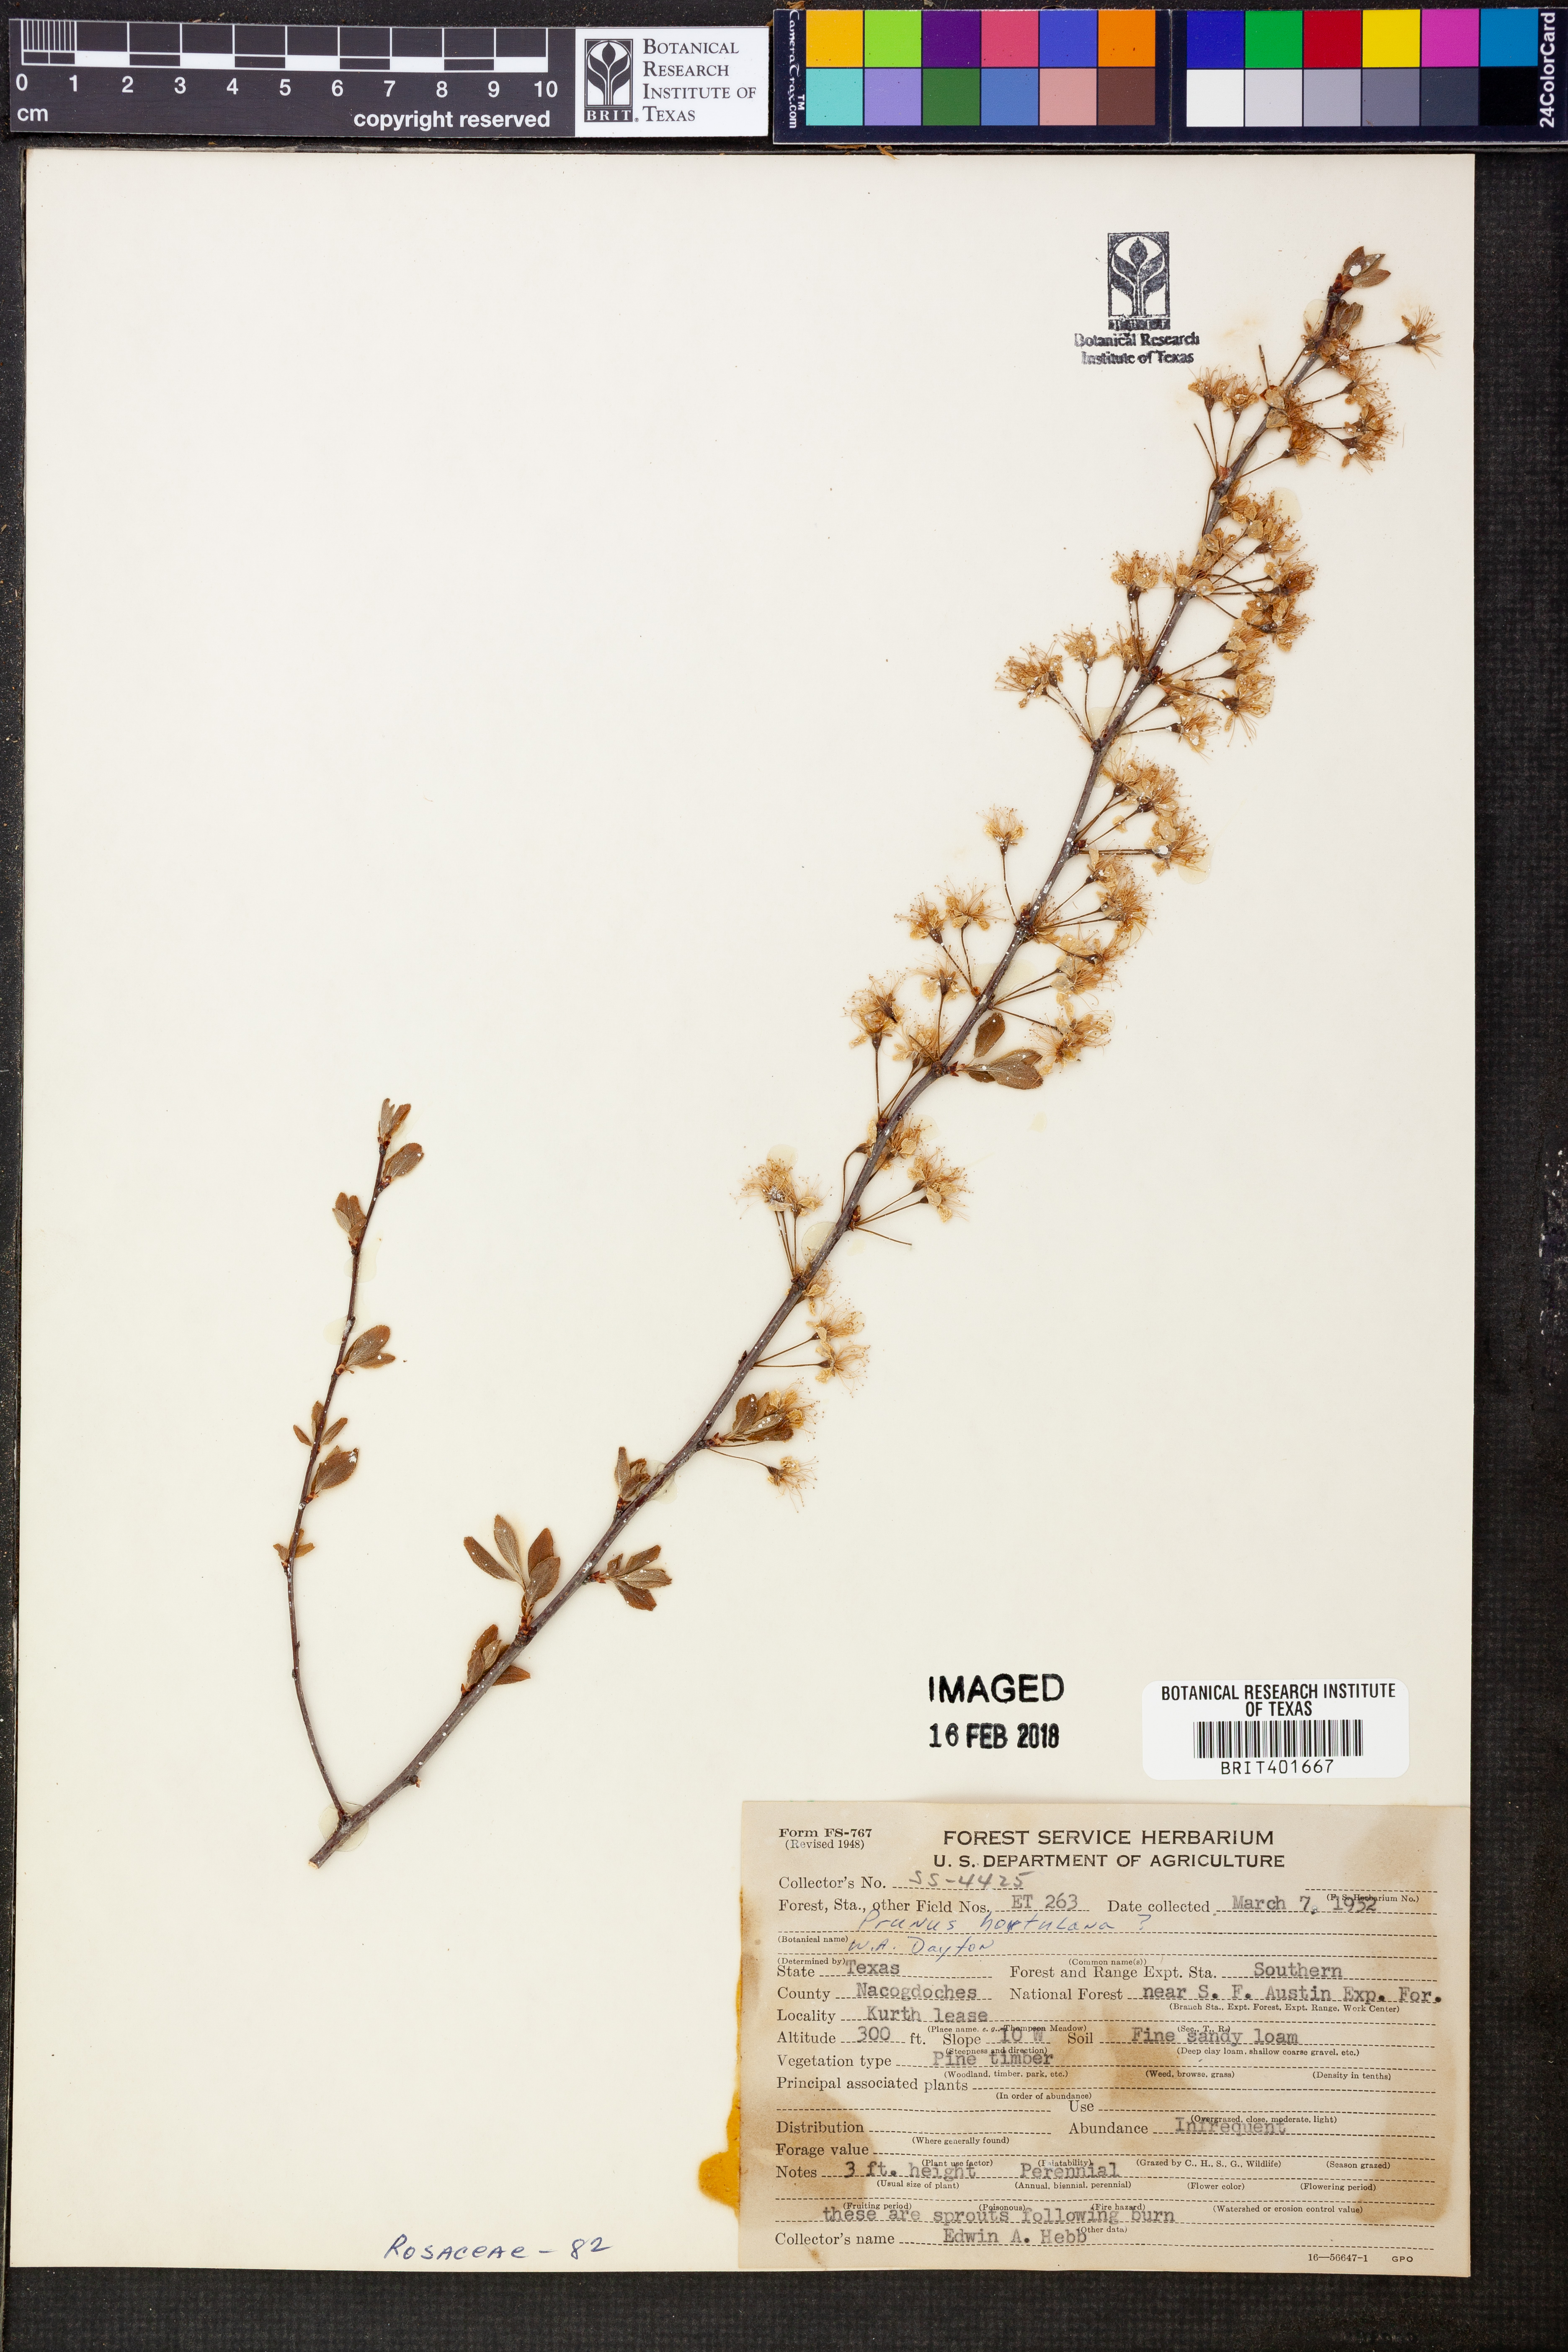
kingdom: Plantae
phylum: Tracheophyta
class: Magnoliopsida
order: Rosales
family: Rosaceae
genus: Prunus
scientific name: Prunus hortulana
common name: Hortulan plum
